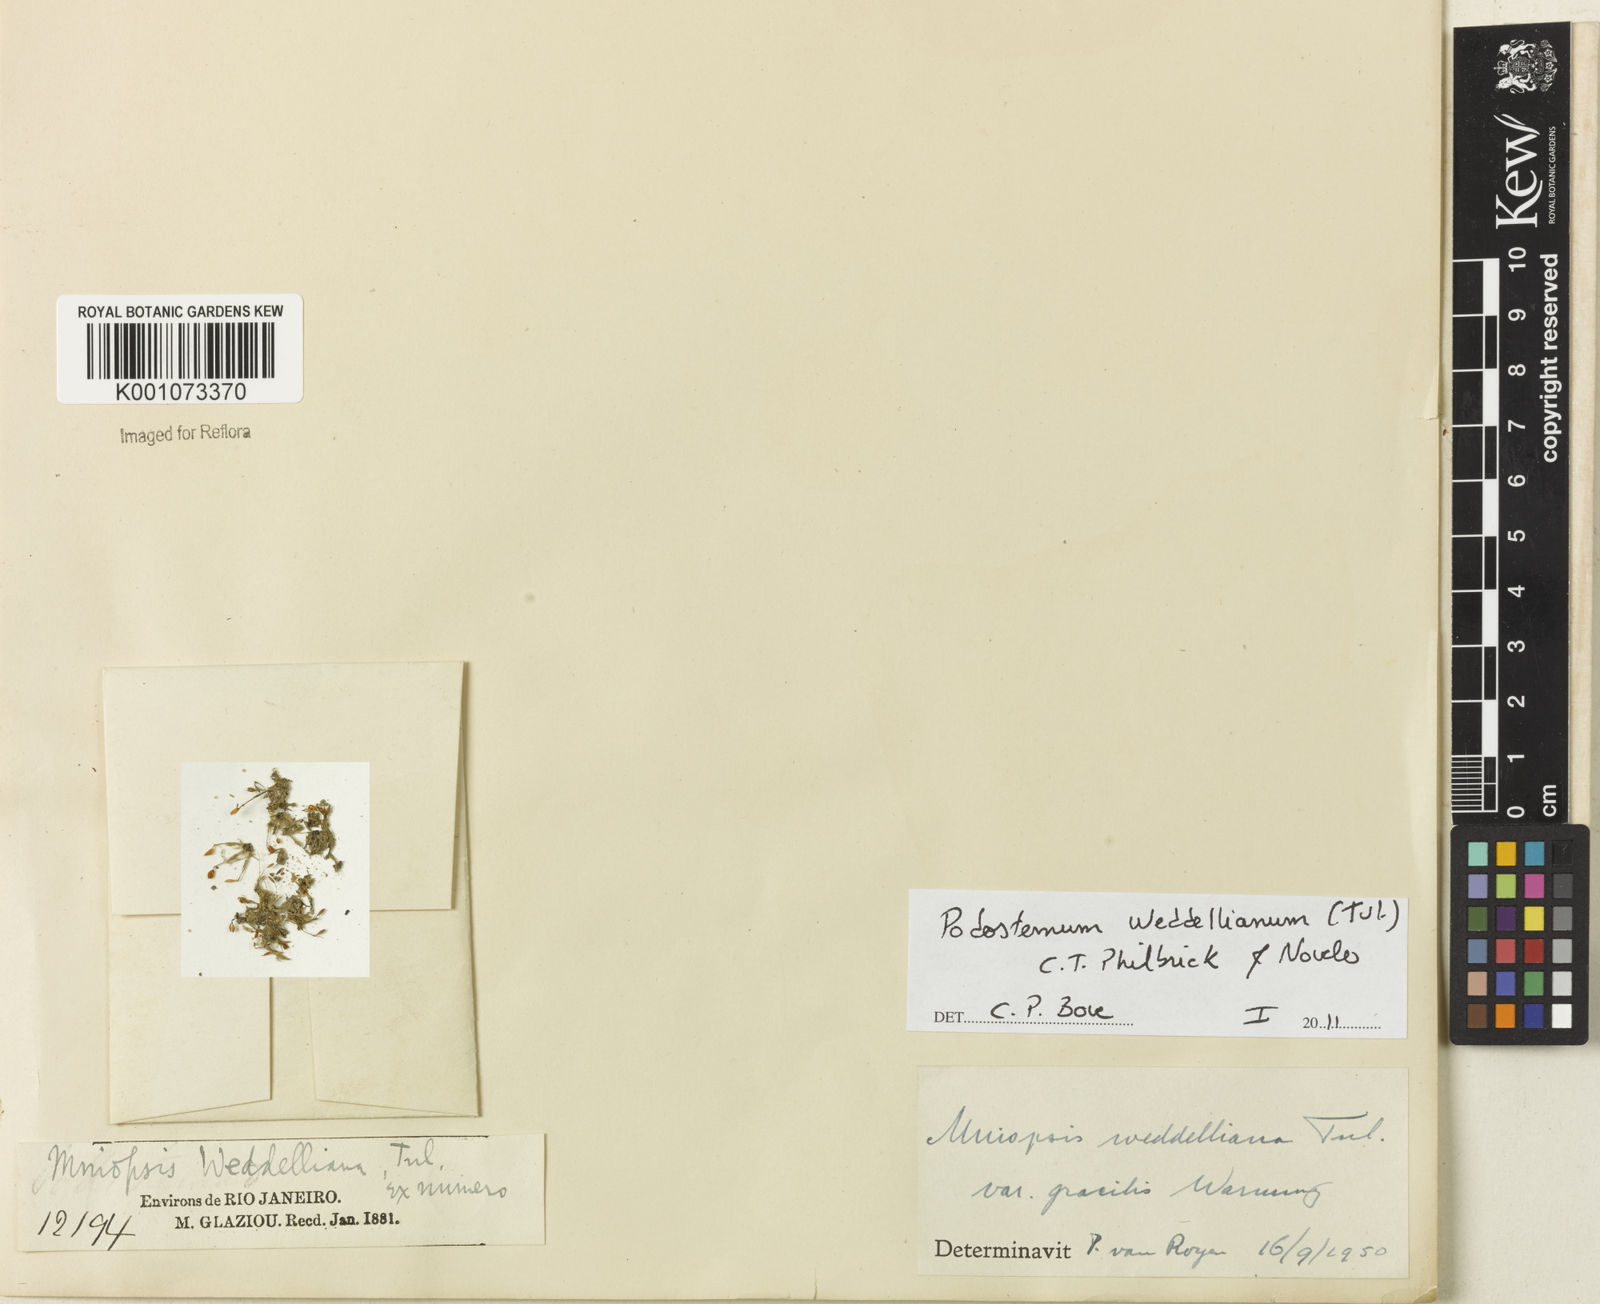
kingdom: Plantae
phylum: Tracheophyta
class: Magnoliopsida
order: Malpighiales
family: Podostemaceae
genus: Podostemum
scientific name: Podostemum weddellianum
